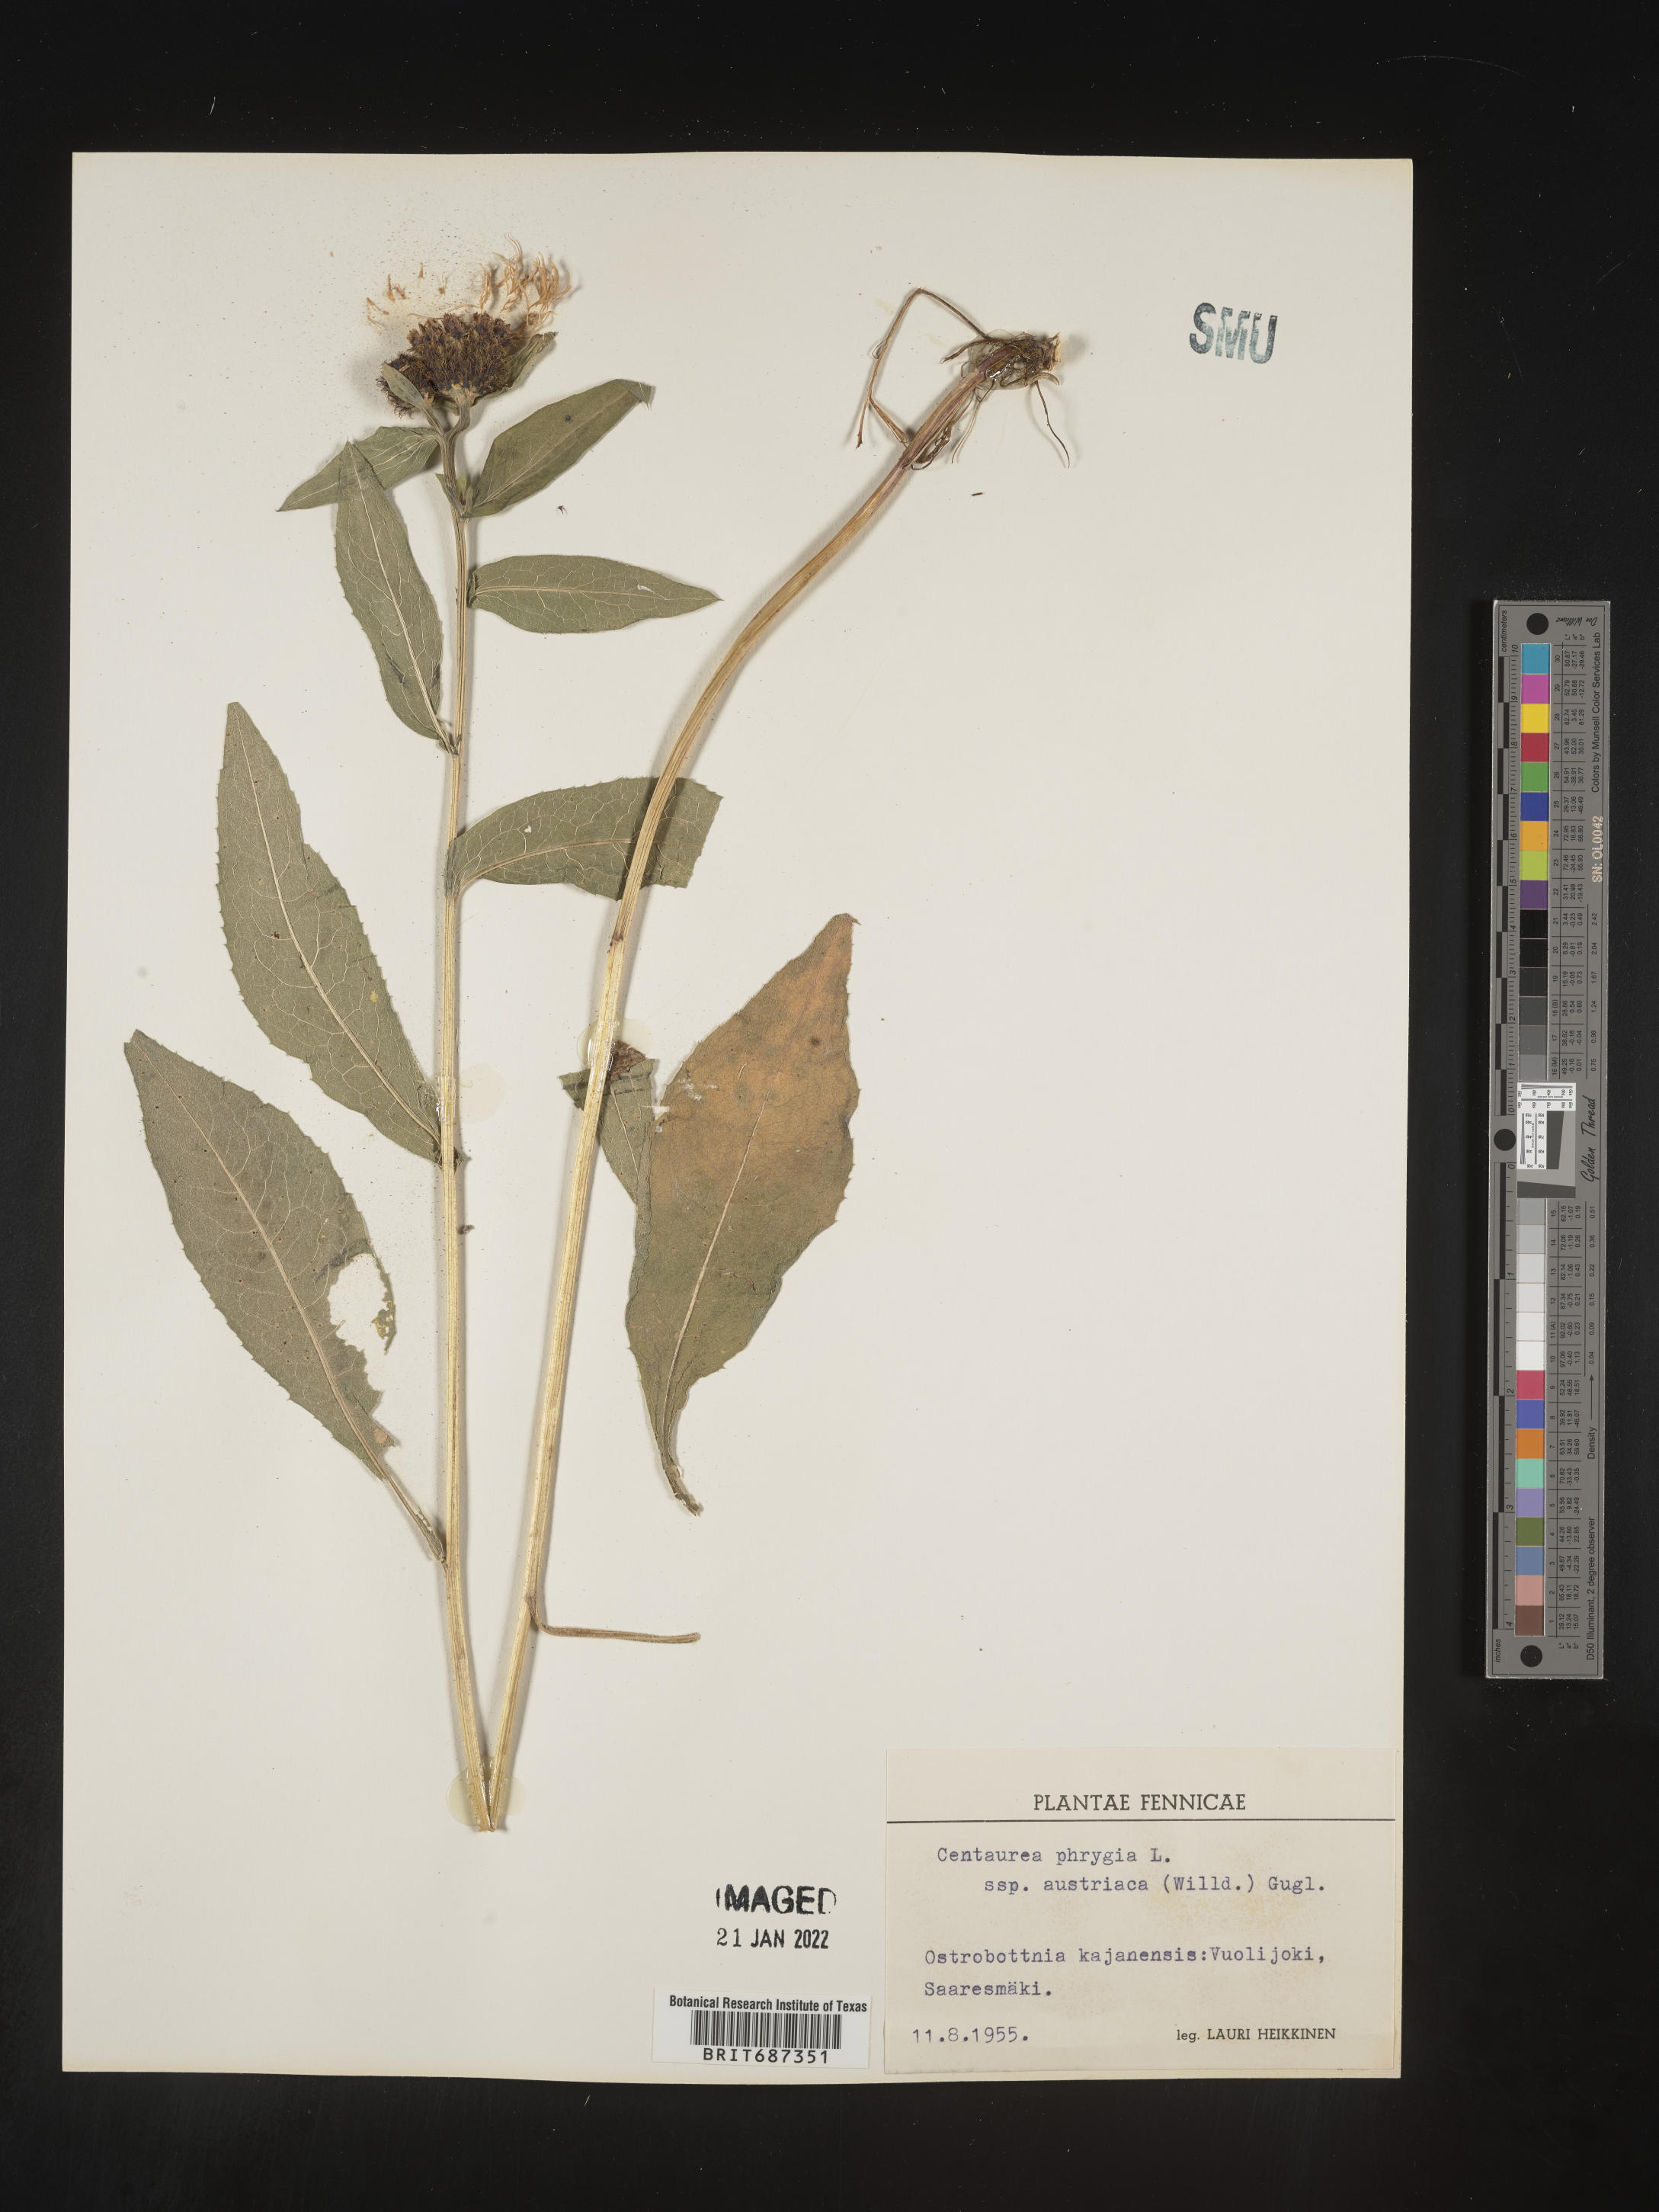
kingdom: Plantae
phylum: Tracheophyta
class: Magnoliopsida
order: Asterales
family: Asteraceae
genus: Centaurea
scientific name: Centaurea
